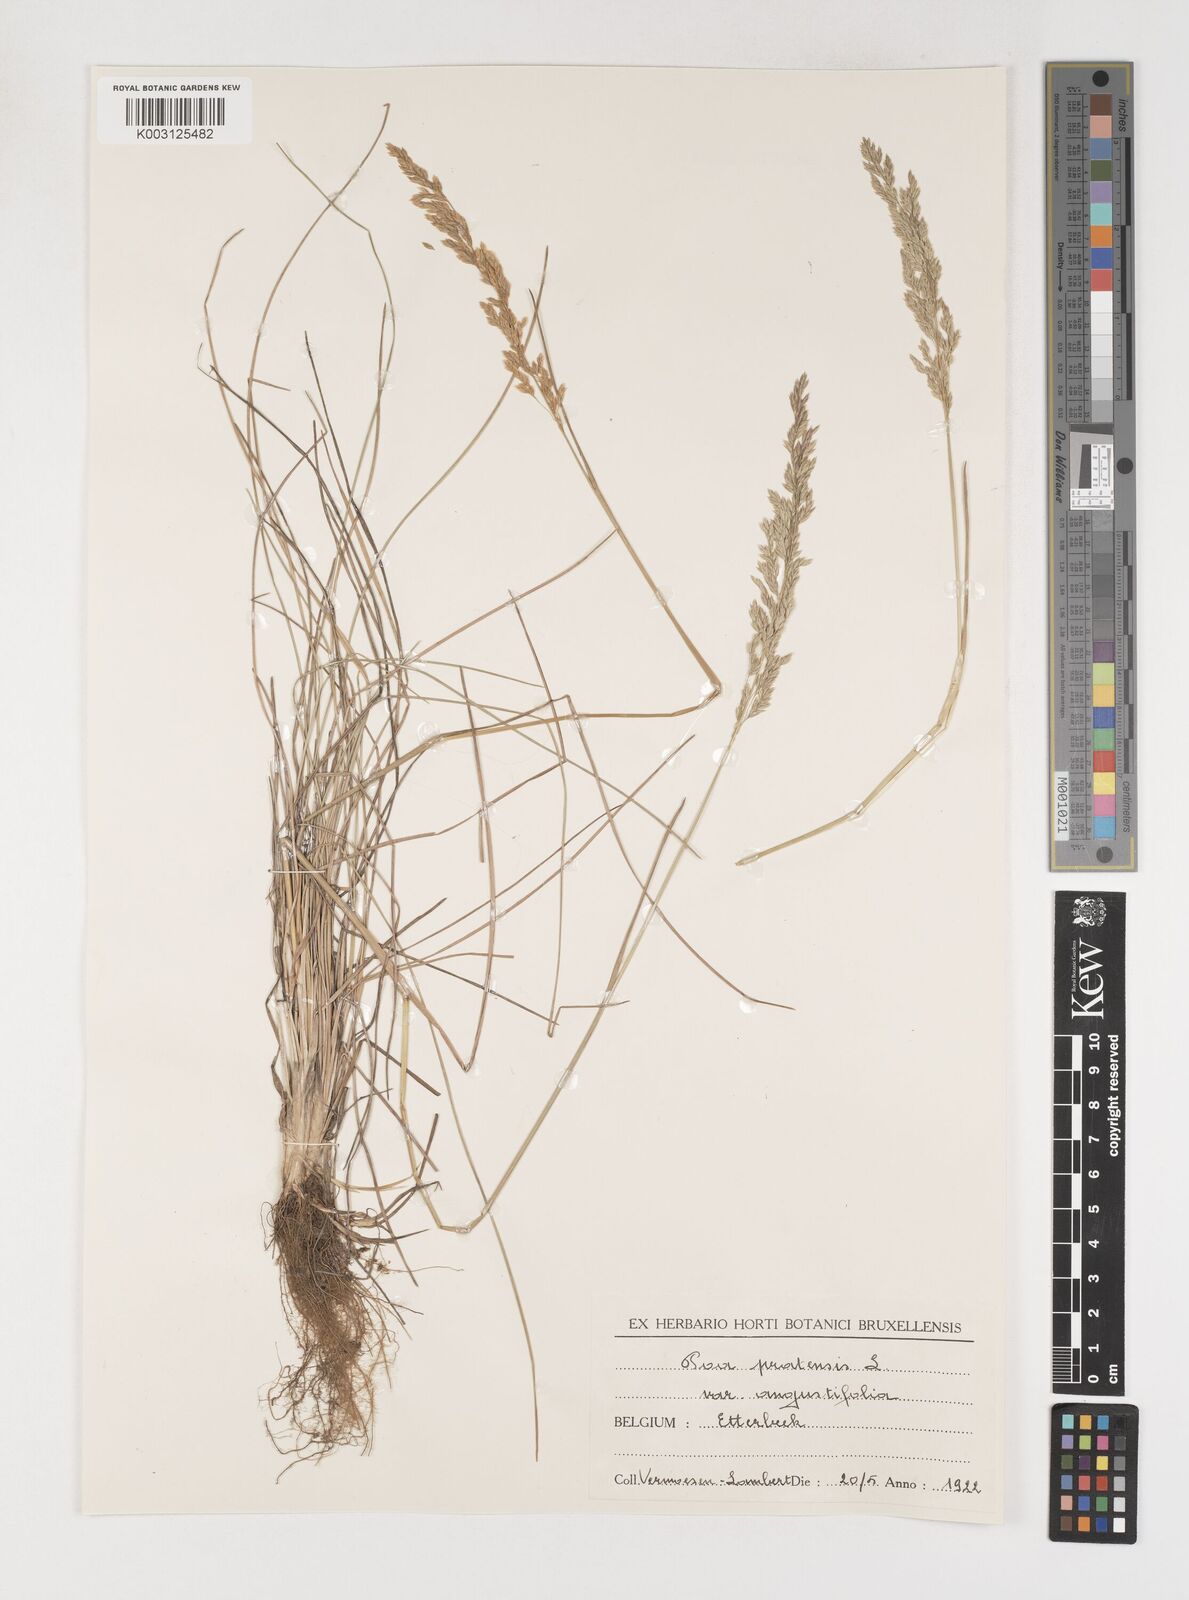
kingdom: Plantae
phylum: Tracheophyta
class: Liliopsida
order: Poales
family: Poaceae
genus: Poa
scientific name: Poa angustifolia
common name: Narrow-leaved meadow-grass
